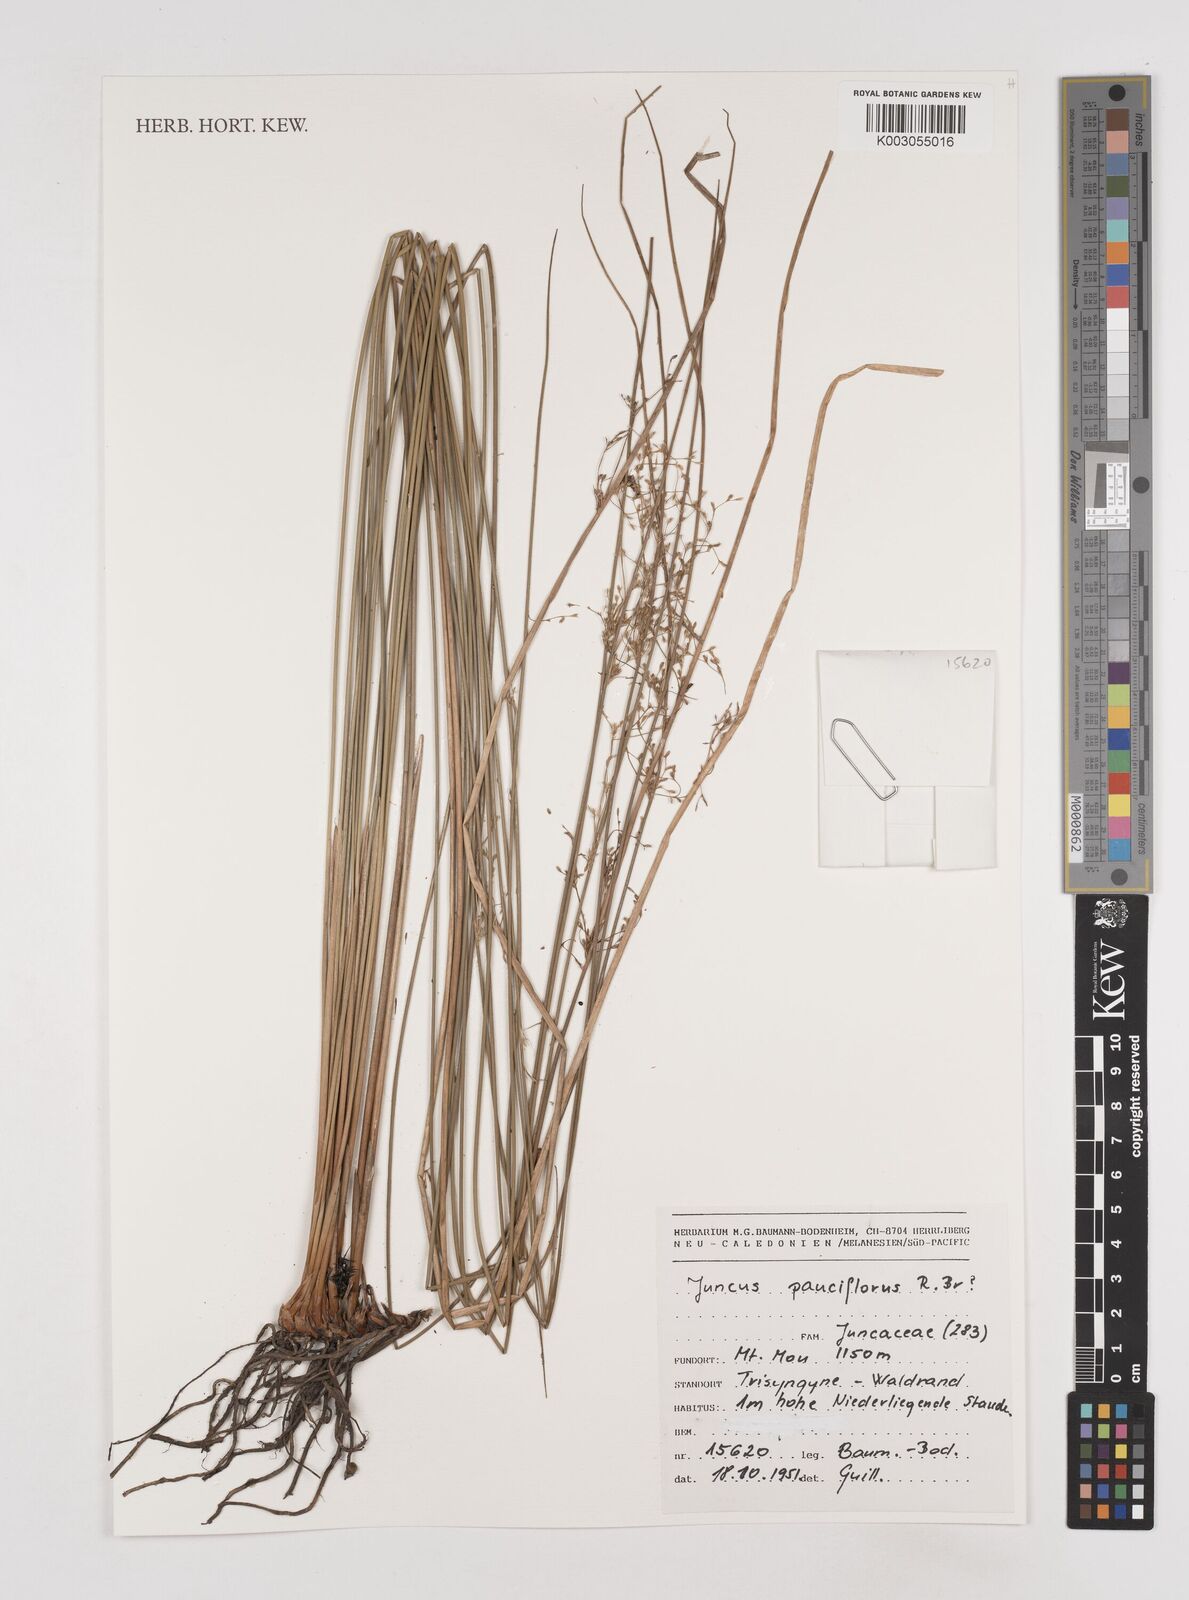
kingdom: Plantae
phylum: Tracheophyta
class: Liliopsida
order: Poales
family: Juncaceae
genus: Juncus
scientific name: Juncus pauciflorus
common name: Loose-flowered rush
